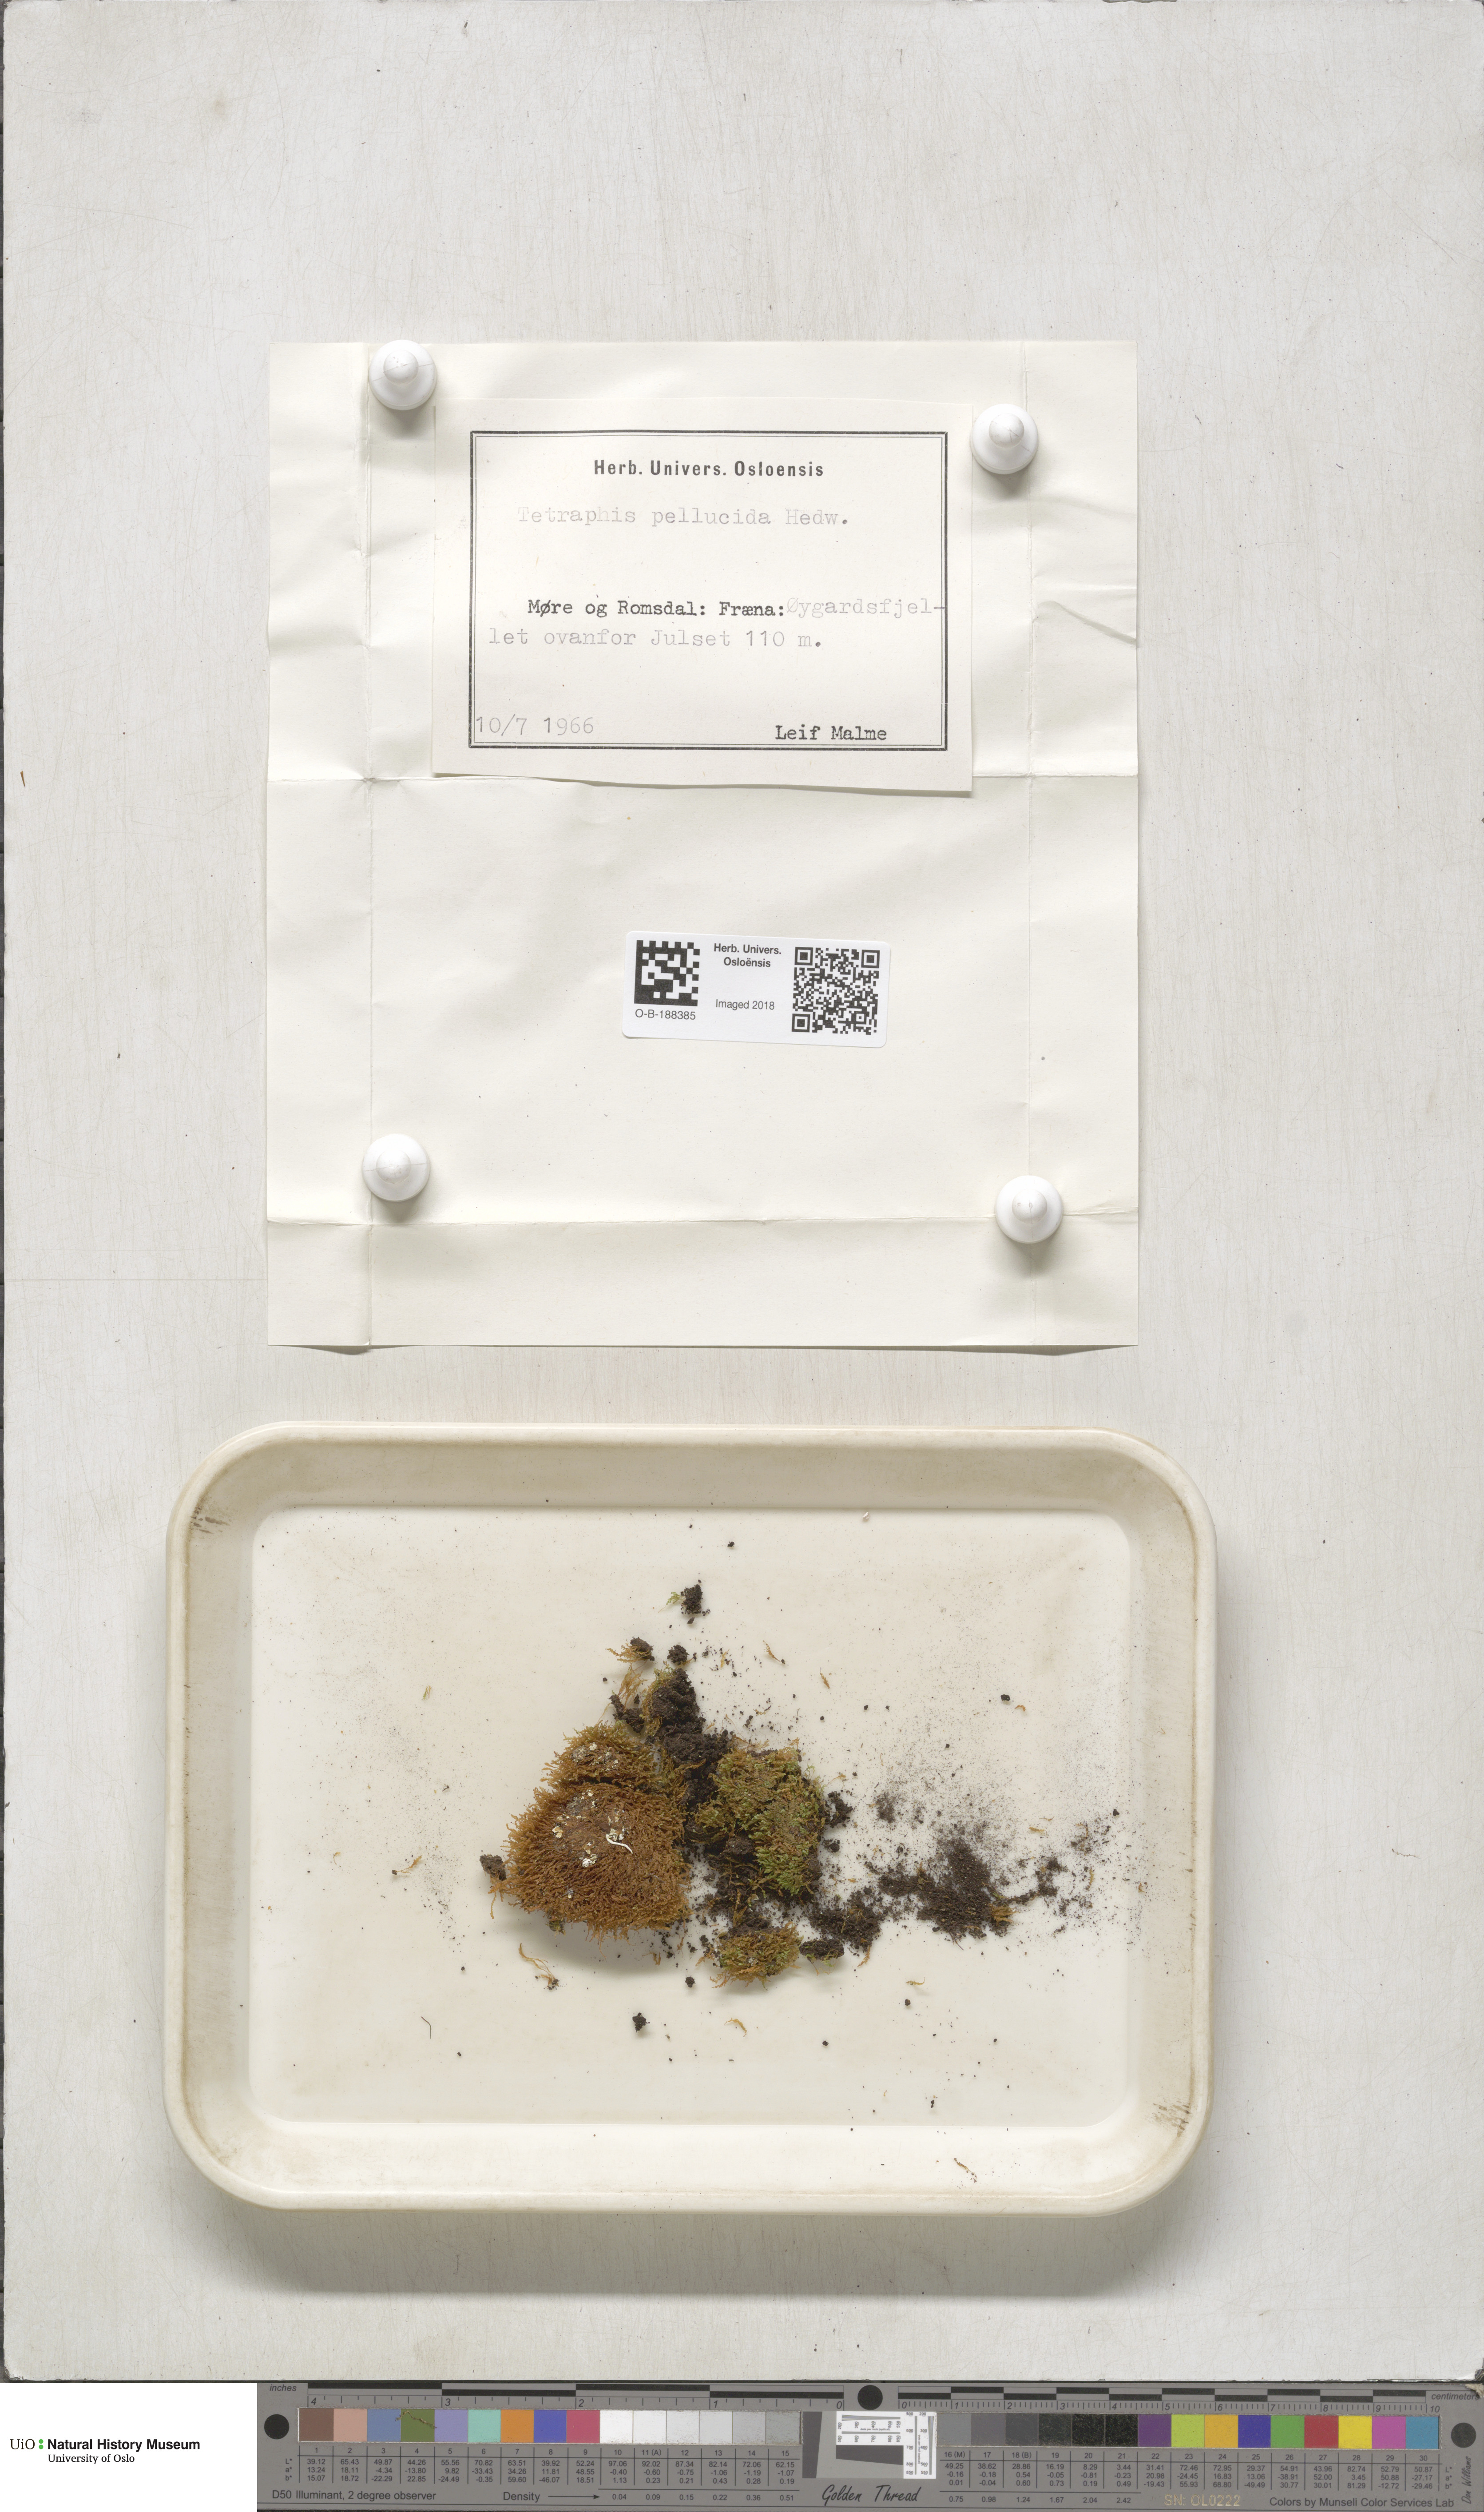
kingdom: Plantae
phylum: Bryophyta
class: Polytrichopsida
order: Tetraphidales
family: Tetraphidaceae
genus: Tetraphis
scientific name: Tetraphis pellucida
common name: Common four-toothed moss
